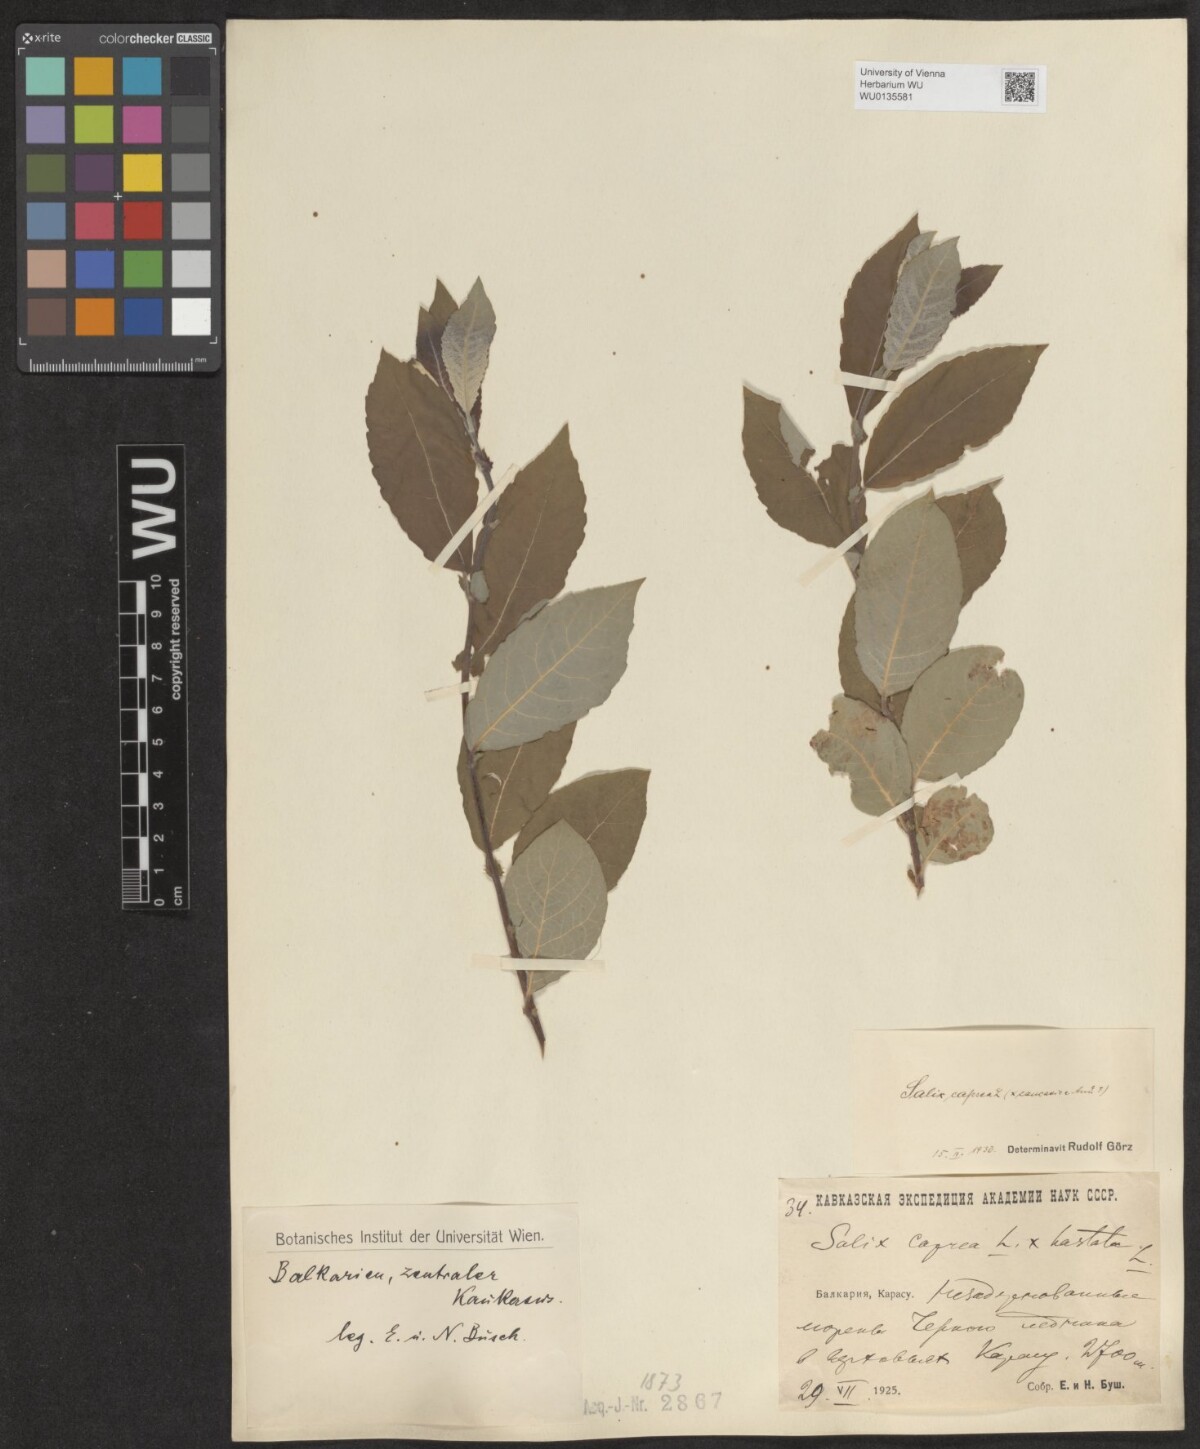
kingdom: Plantae
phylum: Tracheophyta
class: Magnoliopsida
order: Malpighiales
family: Salicaceae
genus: Salix
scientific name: Salix caprea
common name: Goat willow
